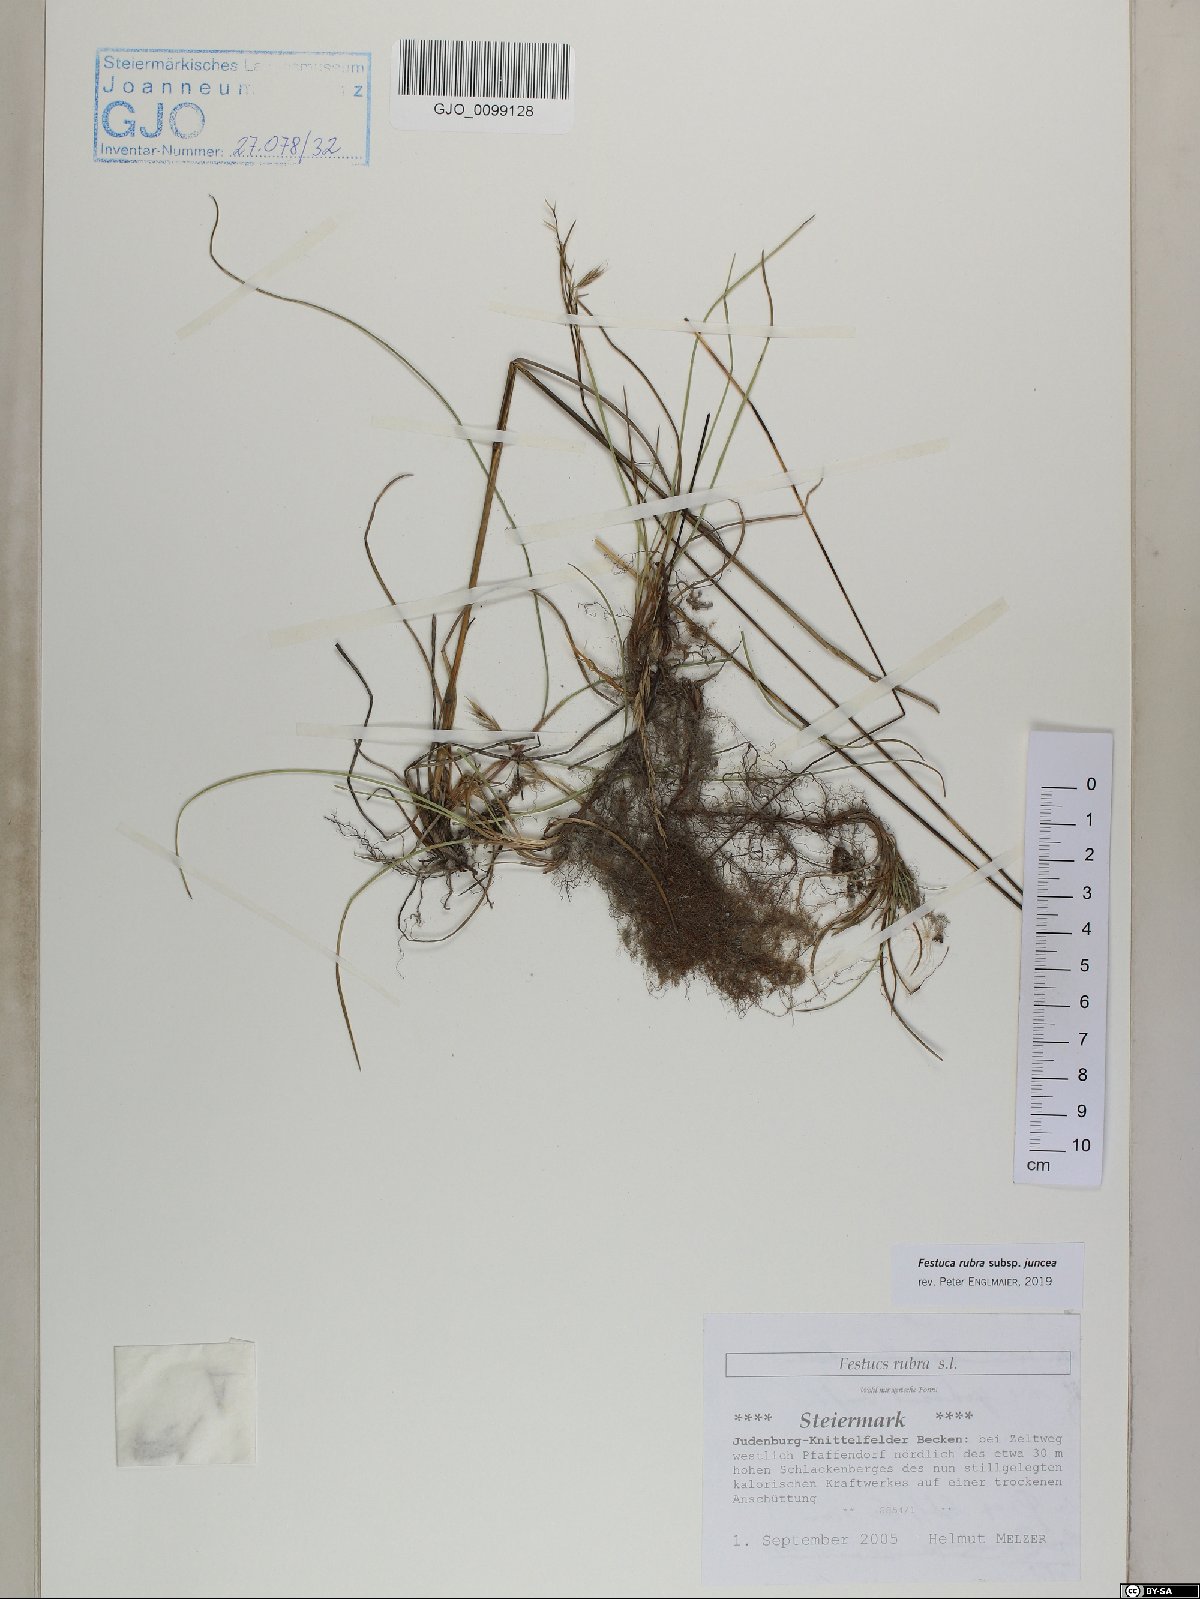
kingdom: Plantae
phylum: Tracheophyta
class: Liliopsida
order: Poales
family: Poaceae
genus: Festuca
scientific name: Festuca rubra
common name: Red fescue
